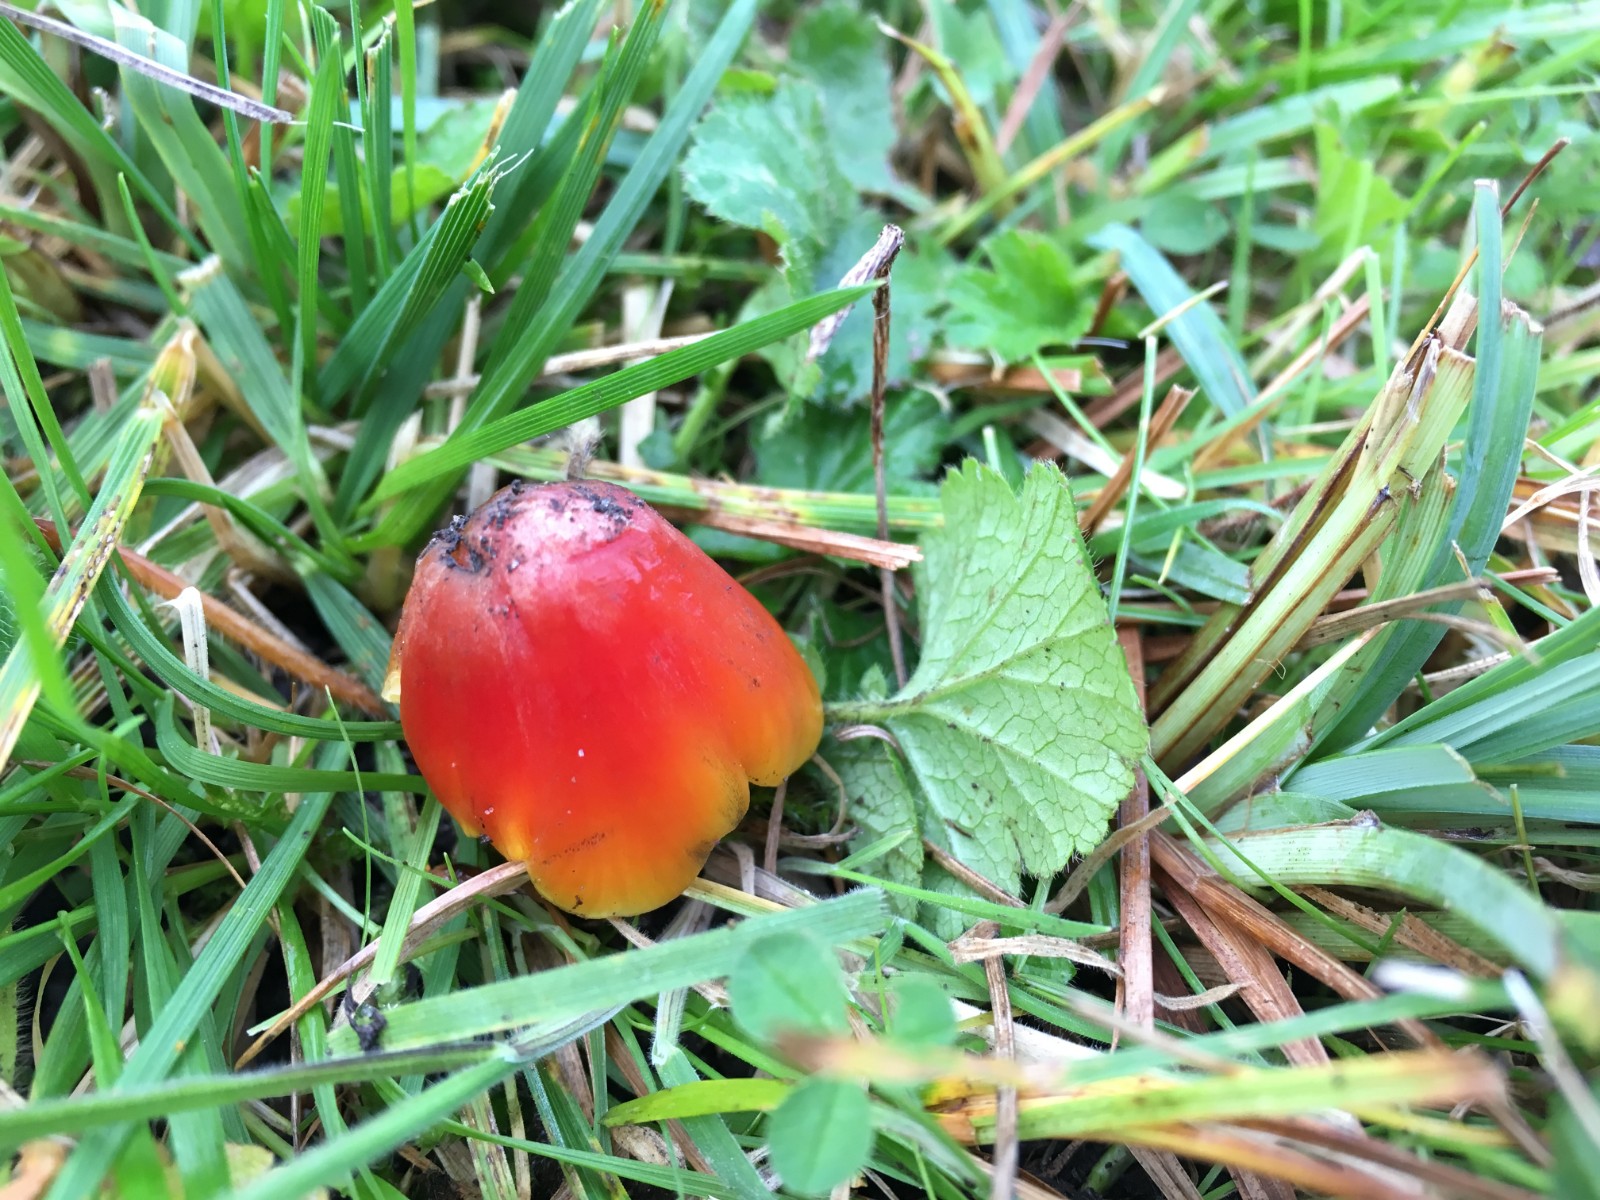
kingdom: Fungi
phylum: Basidiomycota
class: Agaricomycetes
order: Agaricales
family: Hygrophoraceae
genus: Hygrocybe
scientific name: Hygrocybe conica
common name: kegle-vokshat
